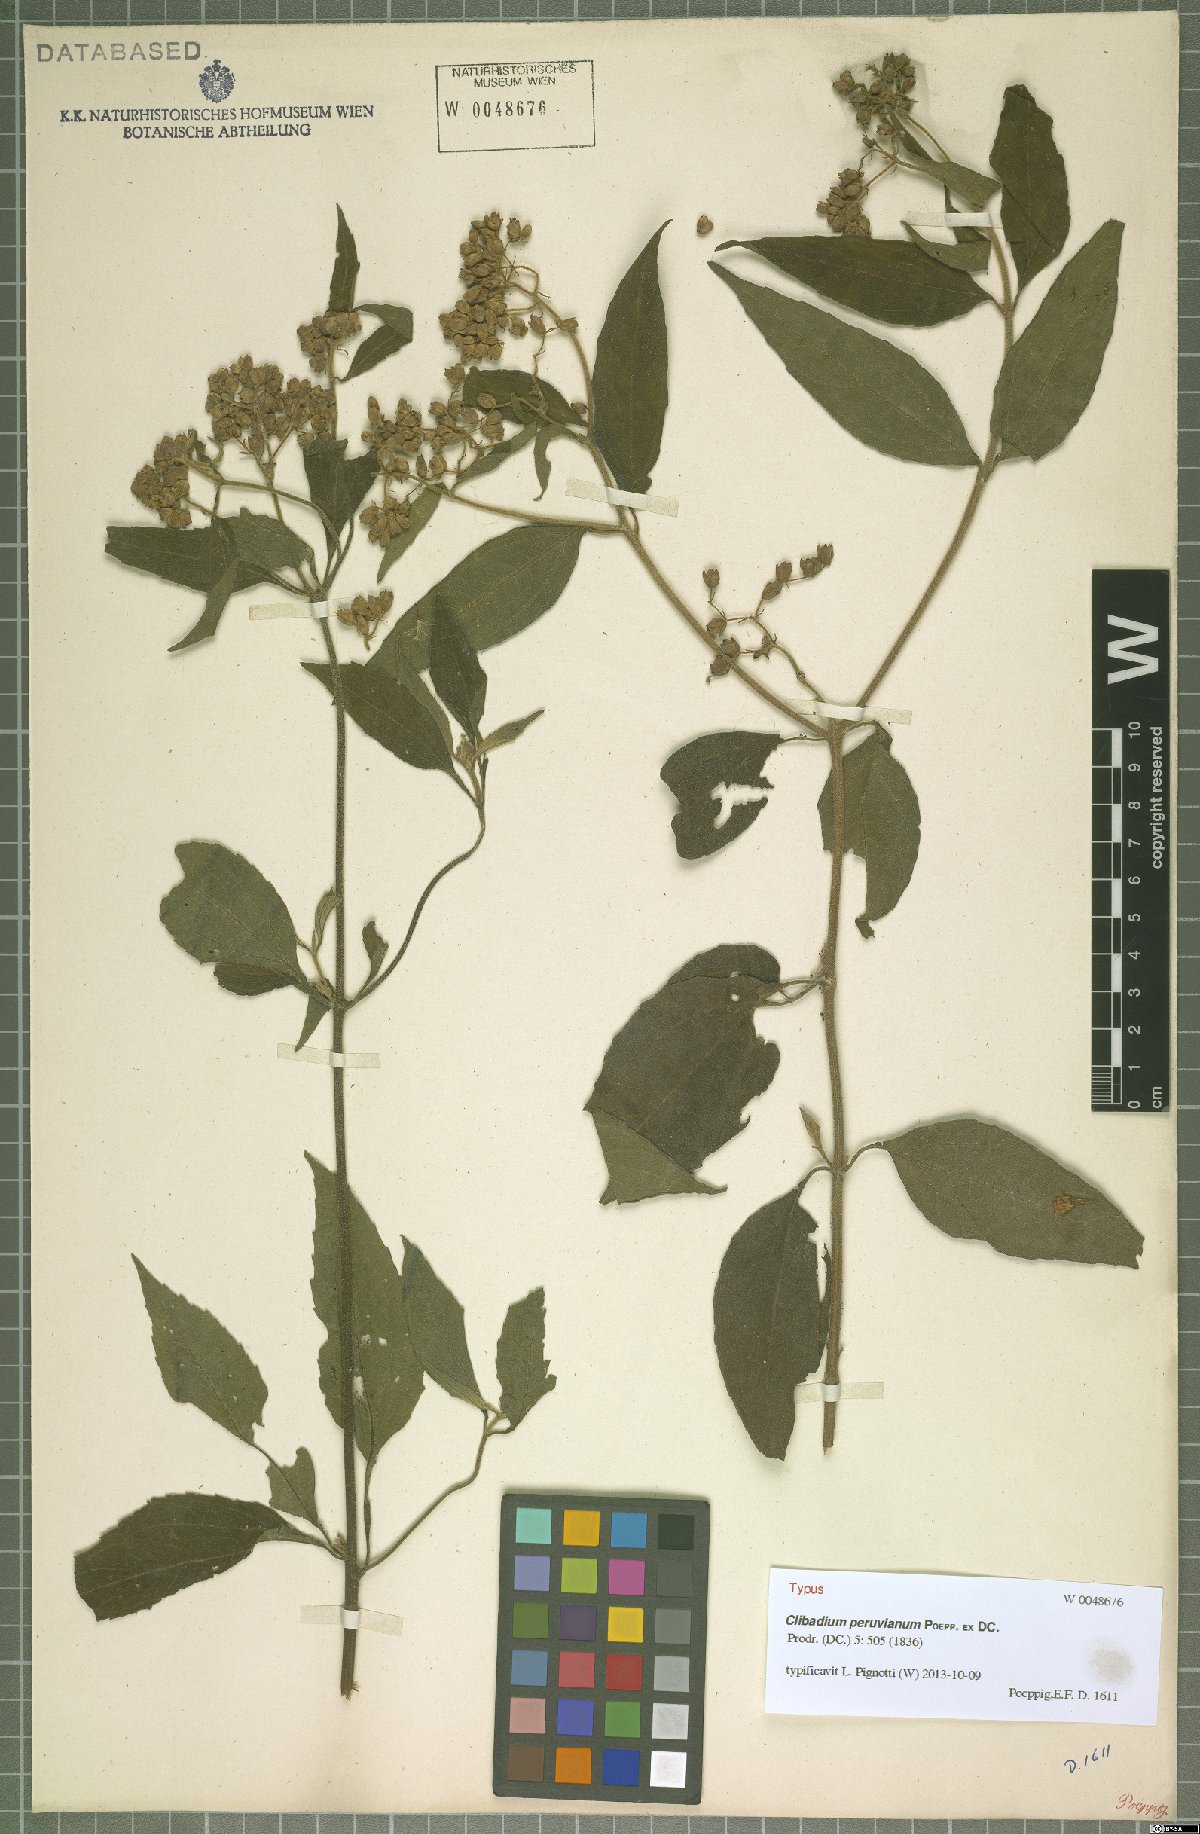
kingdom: Plantae
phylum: Tracheophyta
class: Magnoliopsida
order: Asterales
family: Asteraceae
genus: Clibadium
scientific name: Clibadium peruvianum
